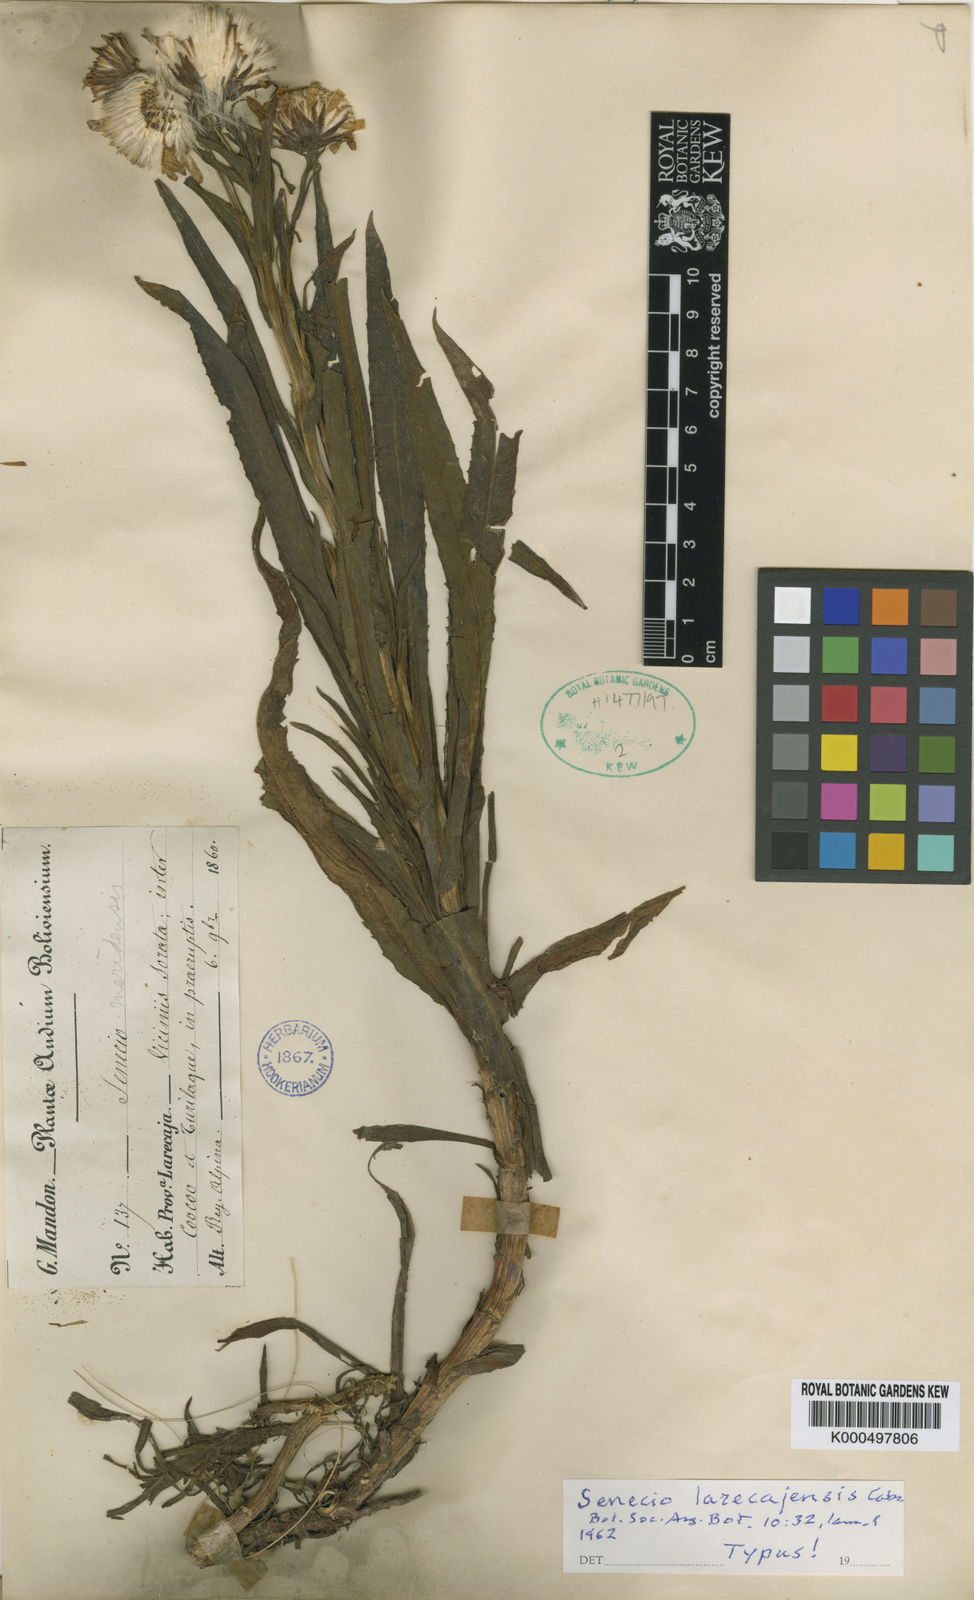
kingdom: Plantae
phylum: Tracheophyta
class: Magnoliopsida
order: Asterales
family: Asteraceae
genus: Senecio
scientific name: Senecio larecajensis
